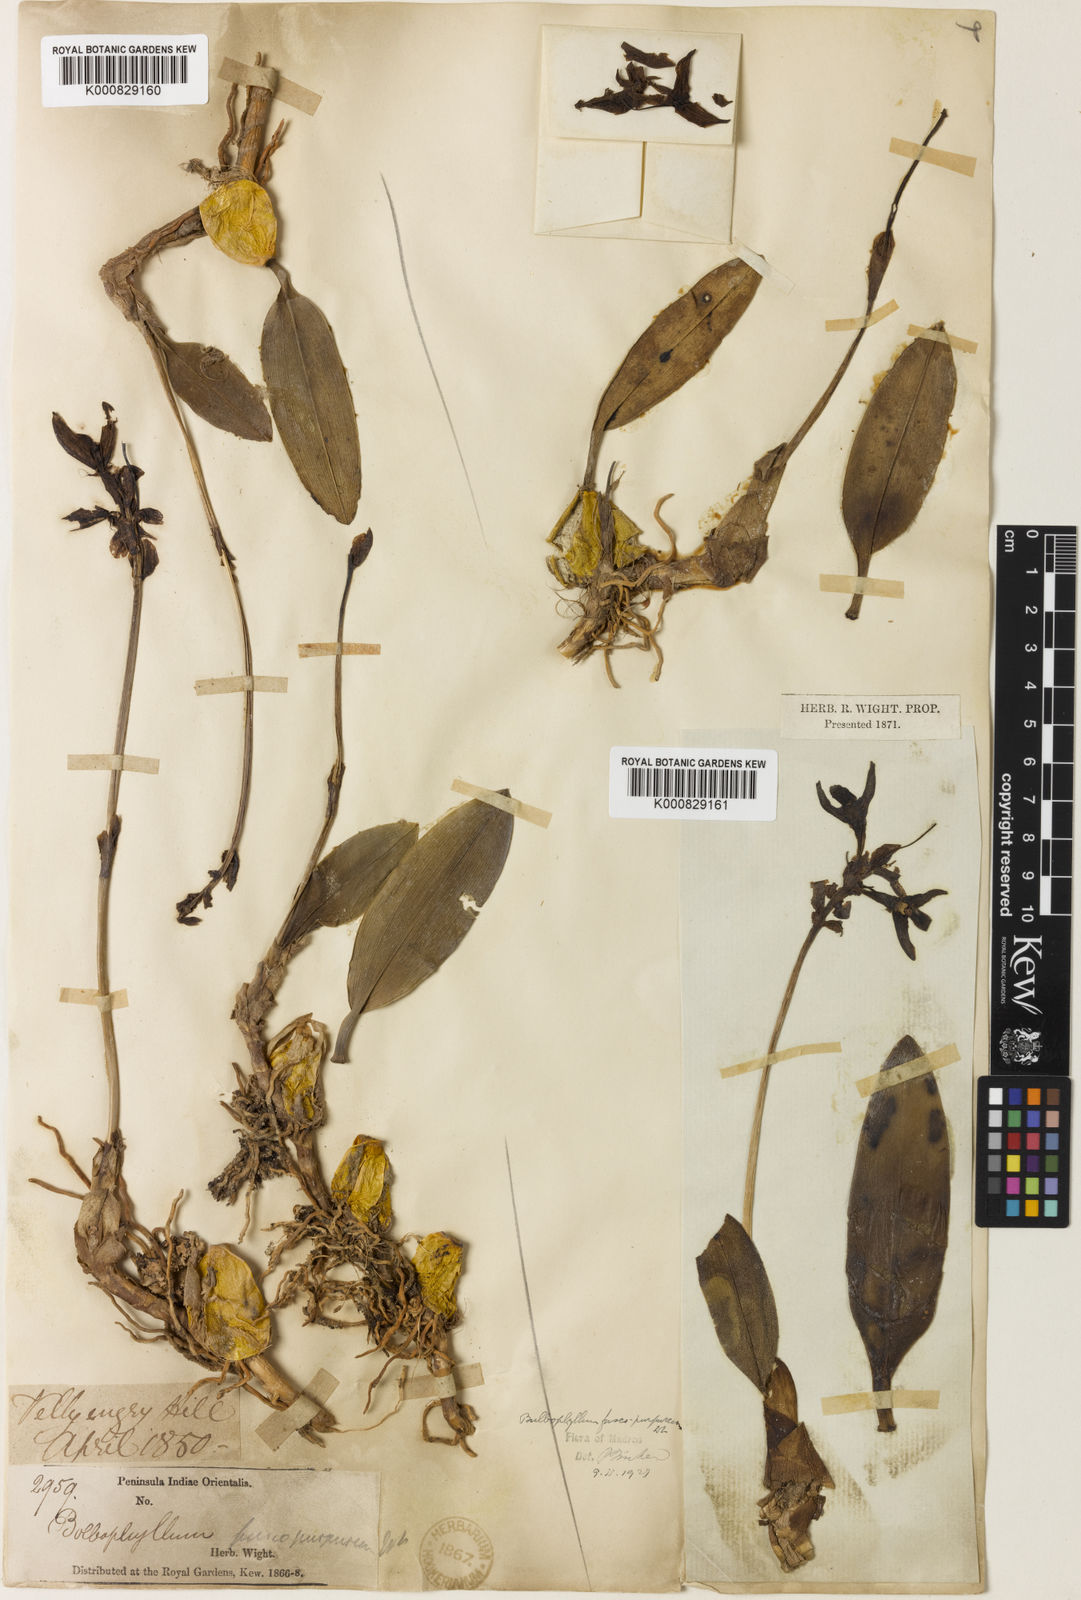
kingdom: Plantae
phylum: Tracheophyta
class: Liliopsida
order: Asparagales
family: Orchidaceae
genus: Bulbophyllum
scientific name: Bulbophyllum fuscopurpureum
